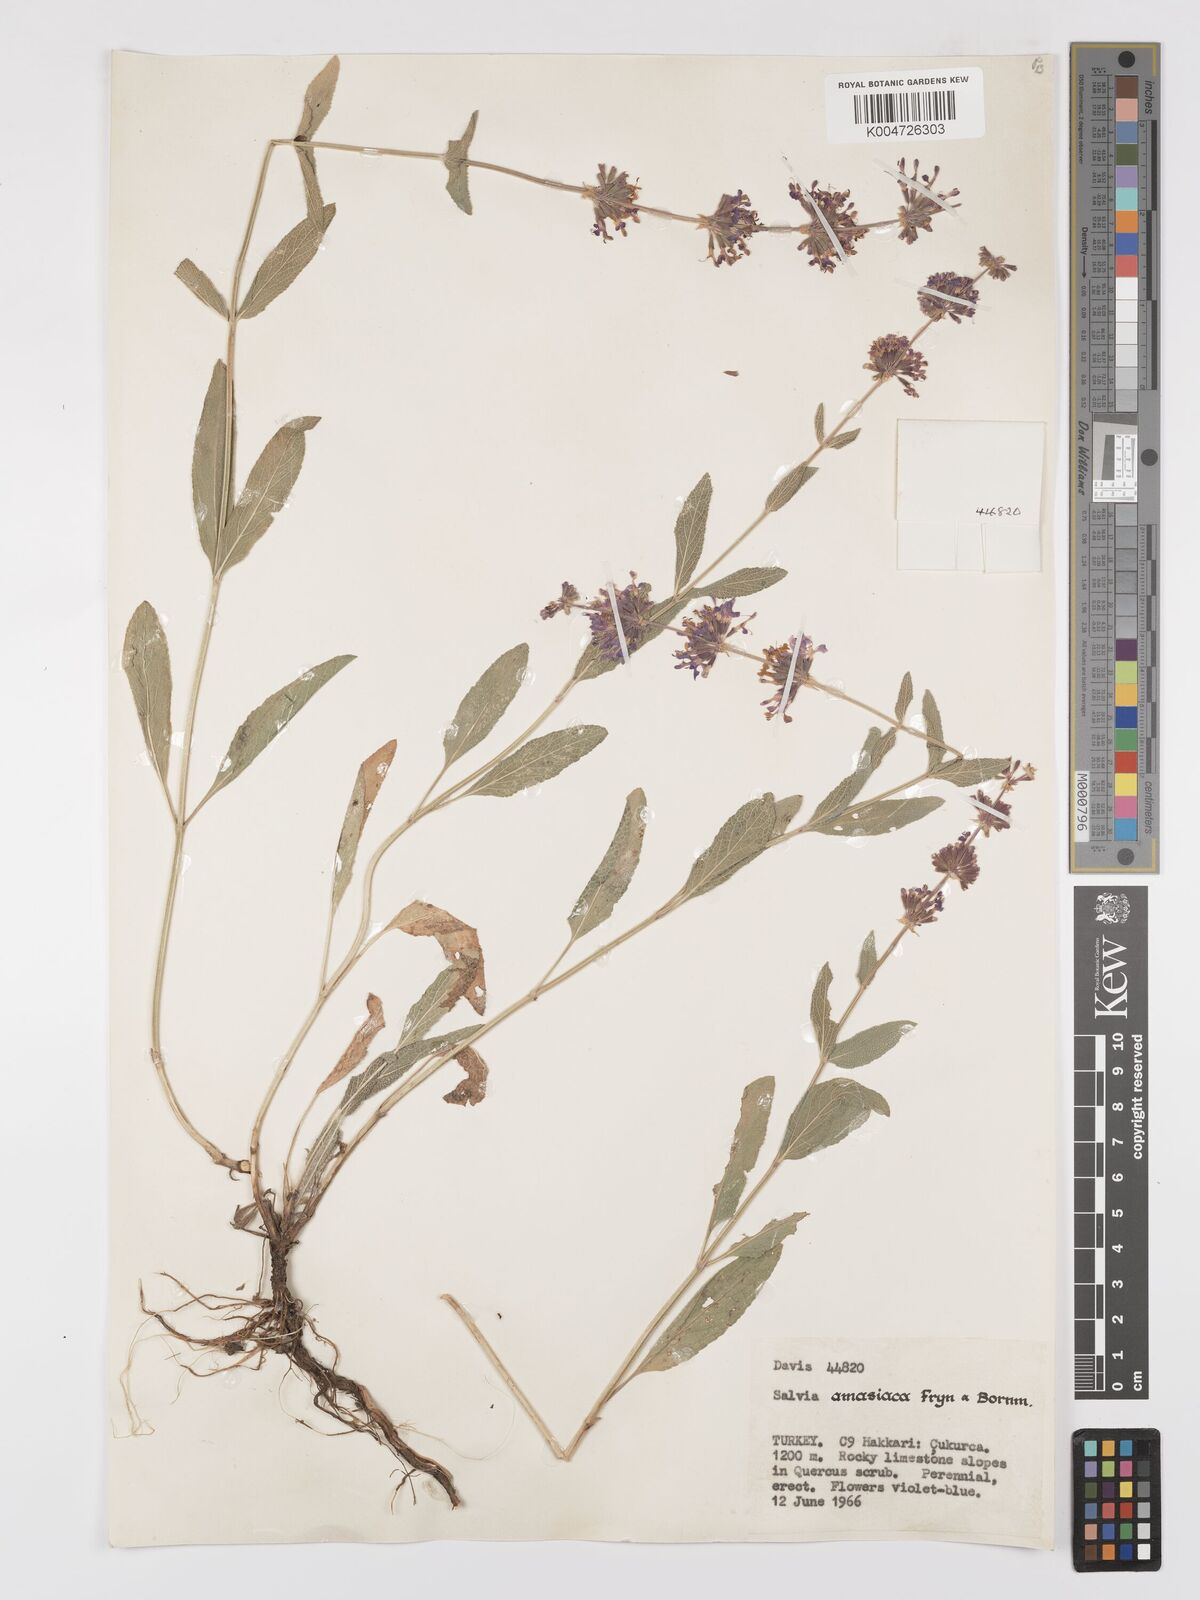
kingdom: Plantae
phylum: Tracheophyta
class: Magnoliopsida
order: Lamiales
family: Lamiaceae
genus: Salvia
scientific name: Salvia verticillata
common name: Whorled clary
